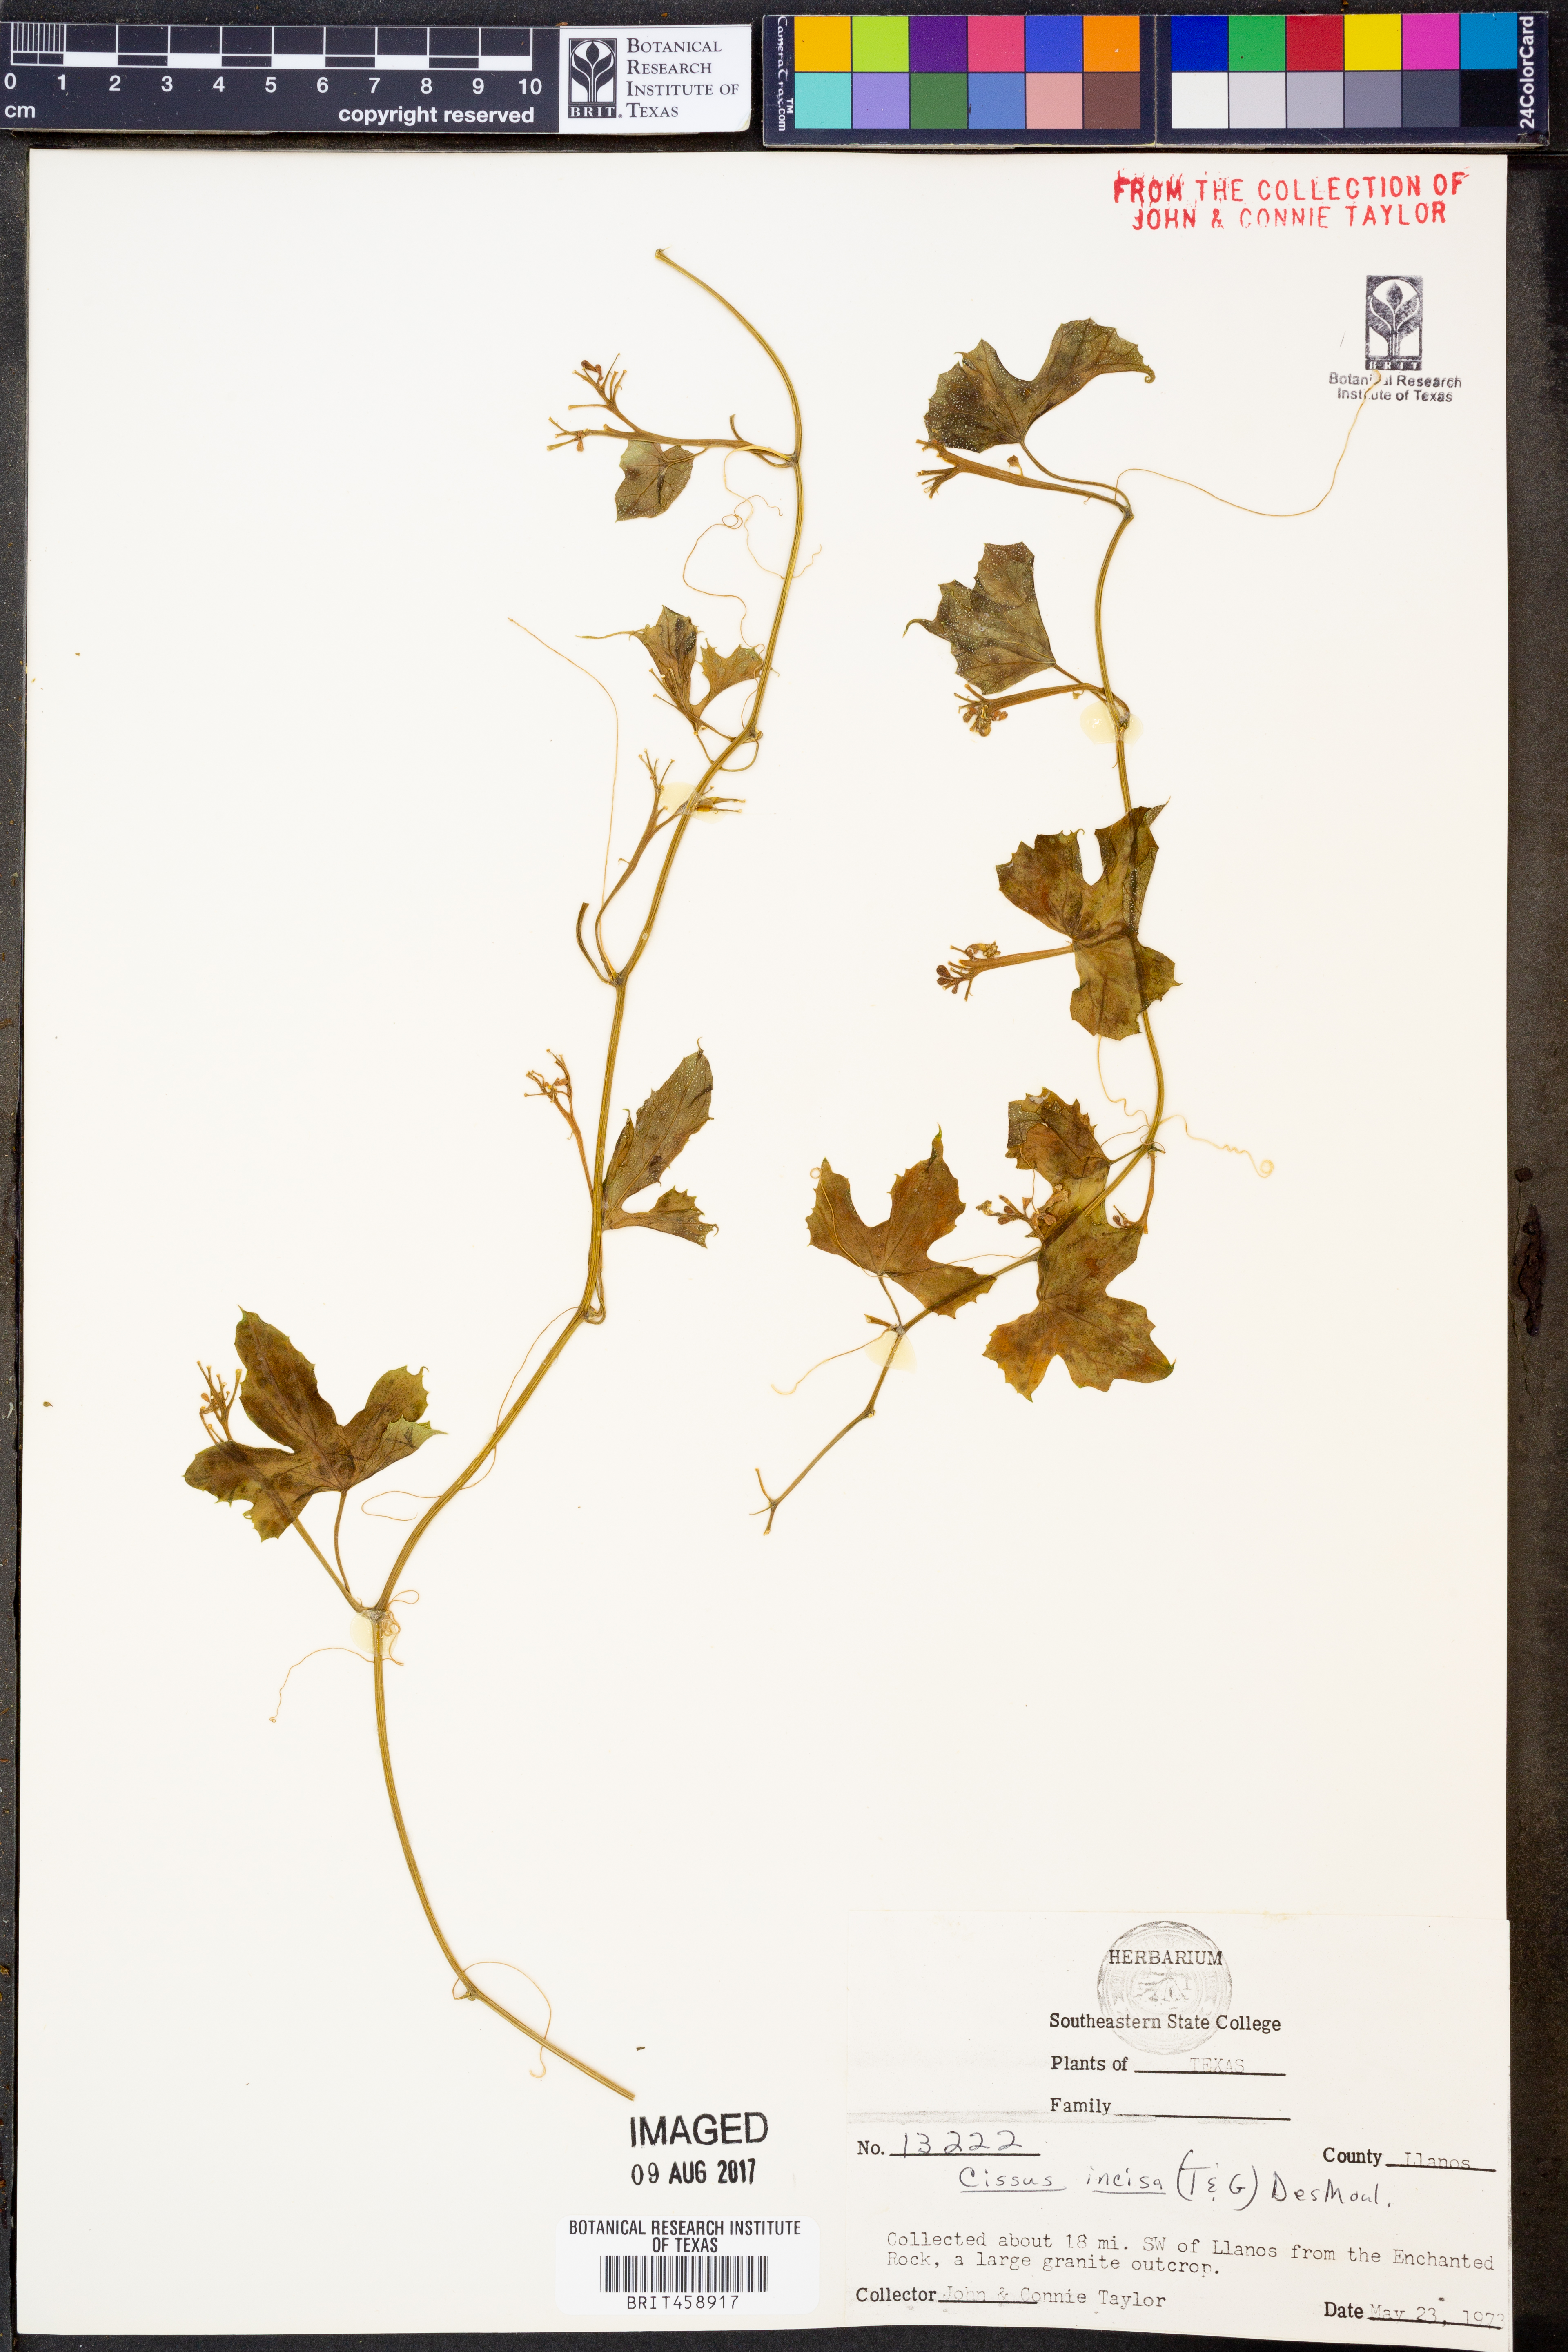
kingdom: Plantae
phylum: Tracheophyta
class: Magnoliopsida
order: Vitales
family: Vitaceae
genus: Cissus
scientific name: Cissus trifoliata
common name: Vine-sorrel
